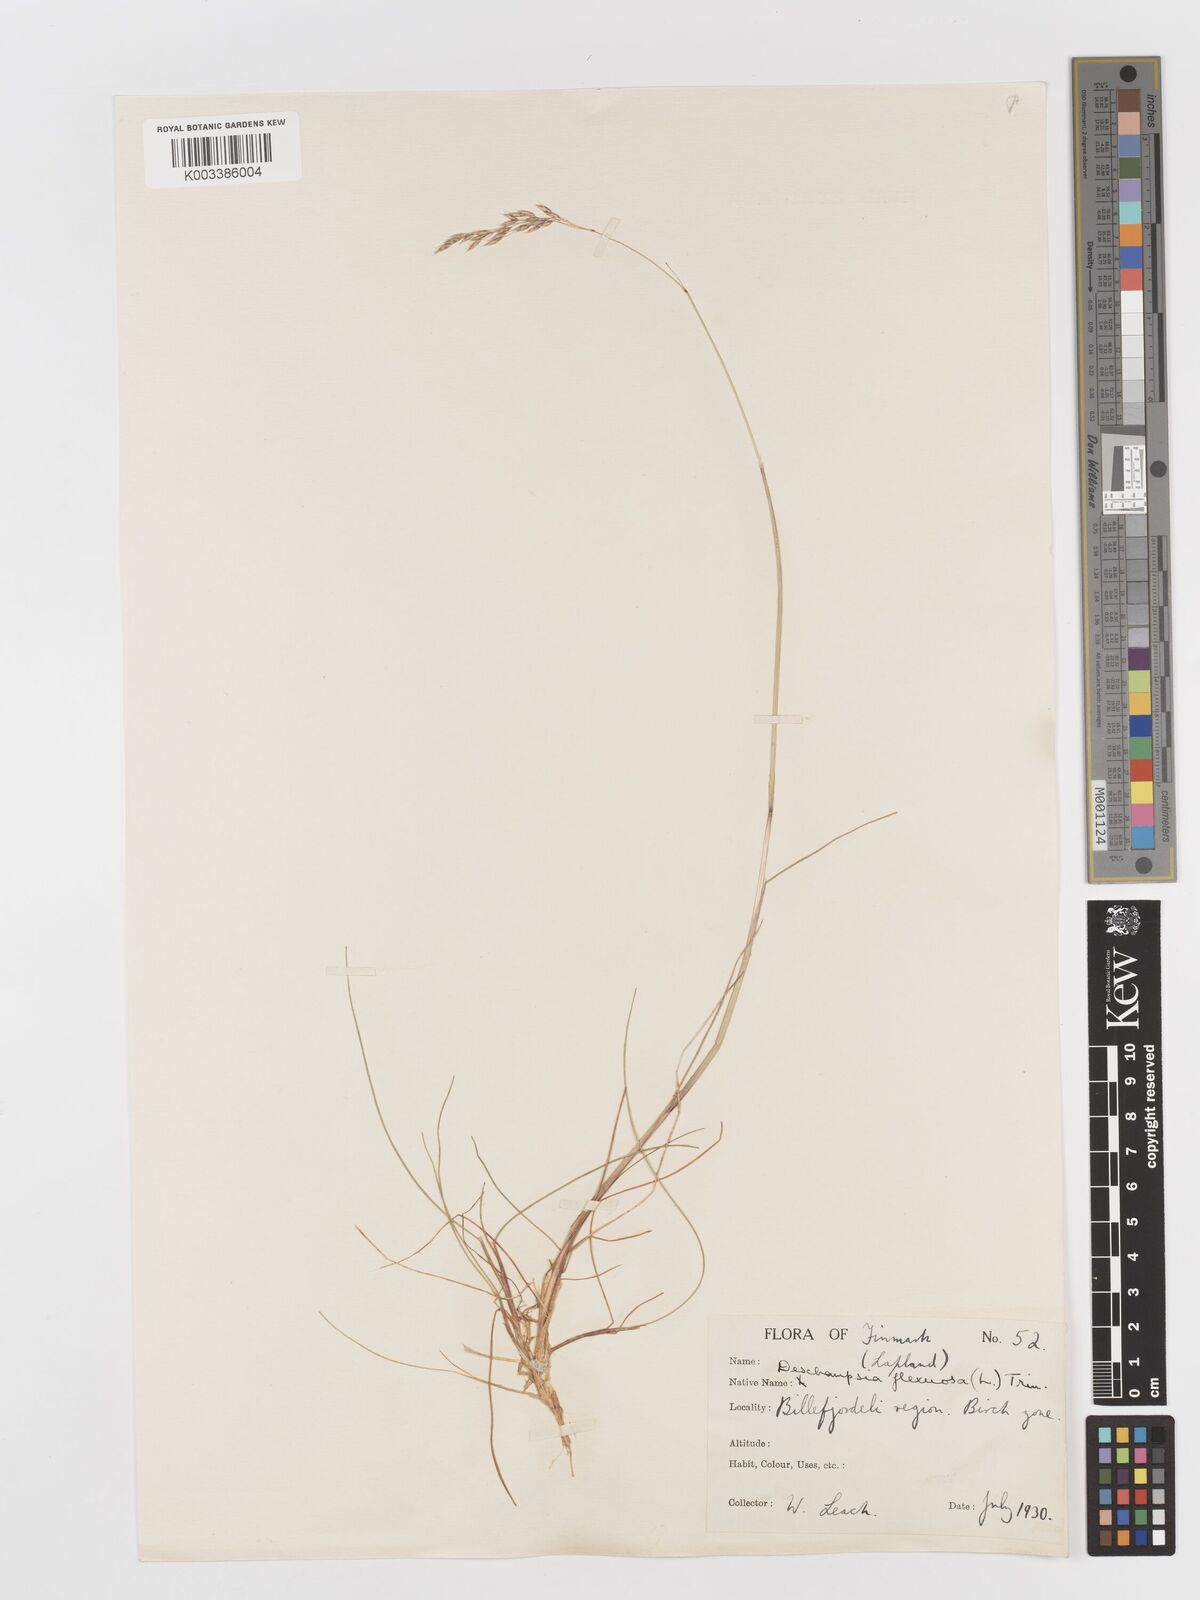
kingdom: Plantae
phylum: Tracheophyta
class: Liliopsida
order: Poales
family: Poaceae
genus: Avenella
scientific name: Avenella flexuosa
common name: Wavy hairgrass
